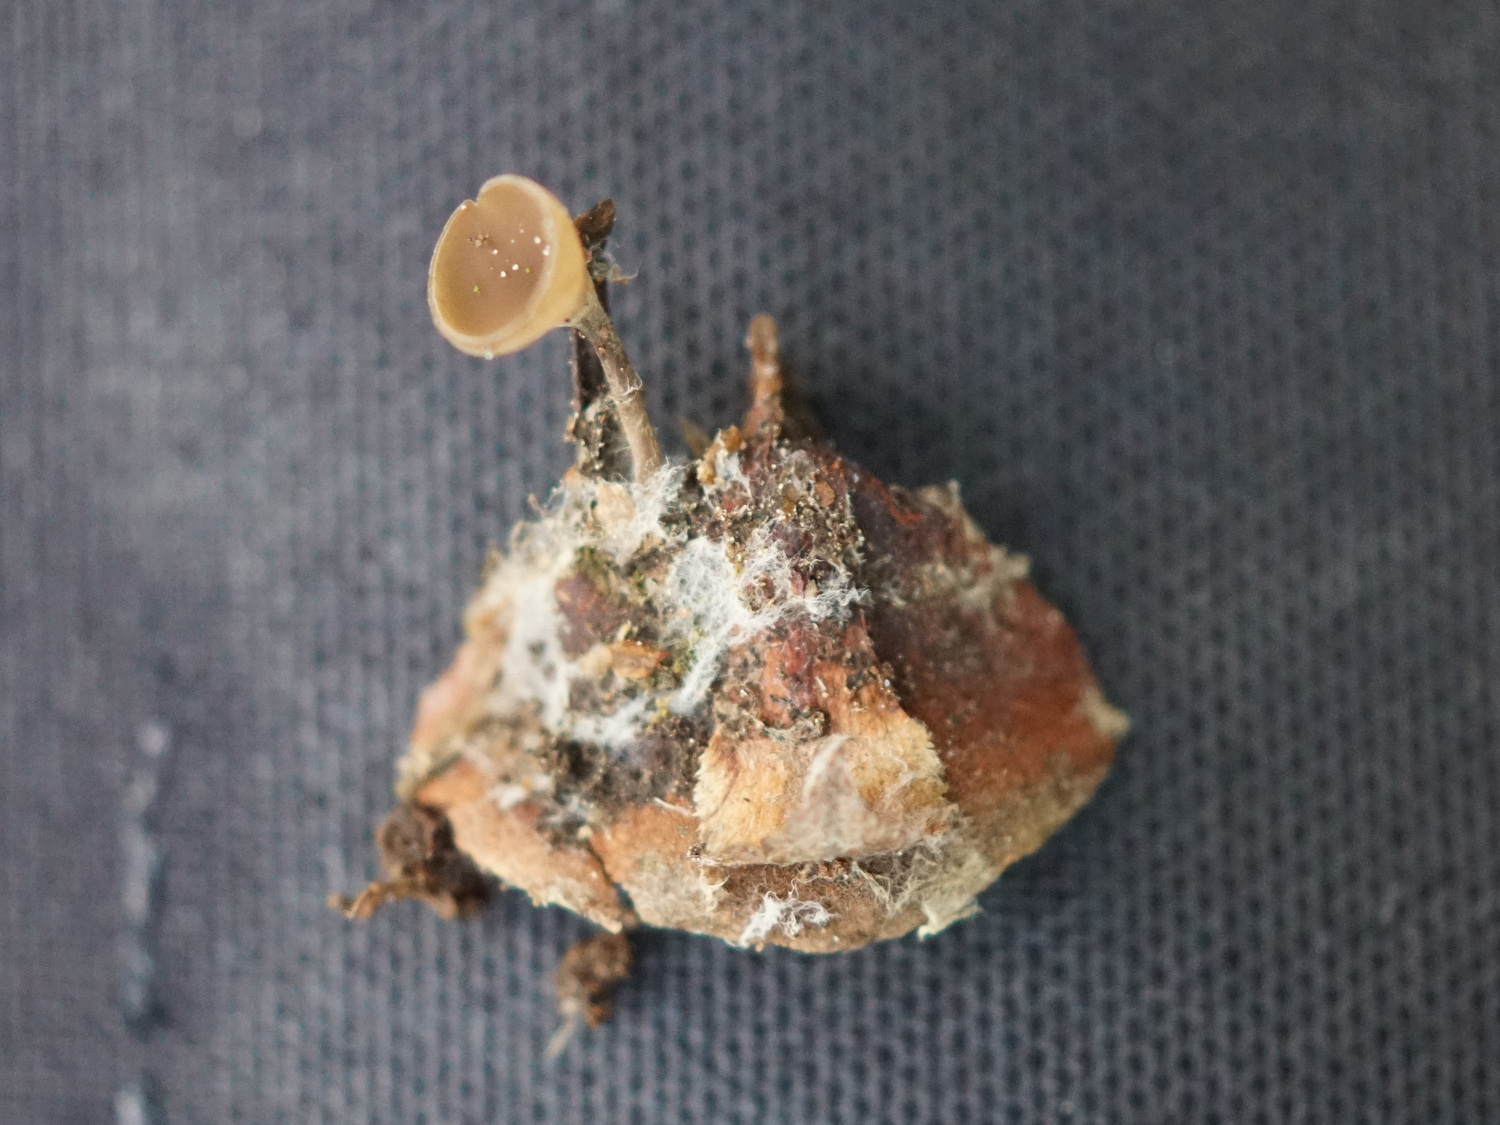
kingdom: Fungi
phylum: Ascomycota
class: Leotiomycetes
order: Helotiales
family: Sclerotiniaceae
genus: Ciboria
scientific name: Ciboria rufofusca
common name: kogleskæl-knoldskive
